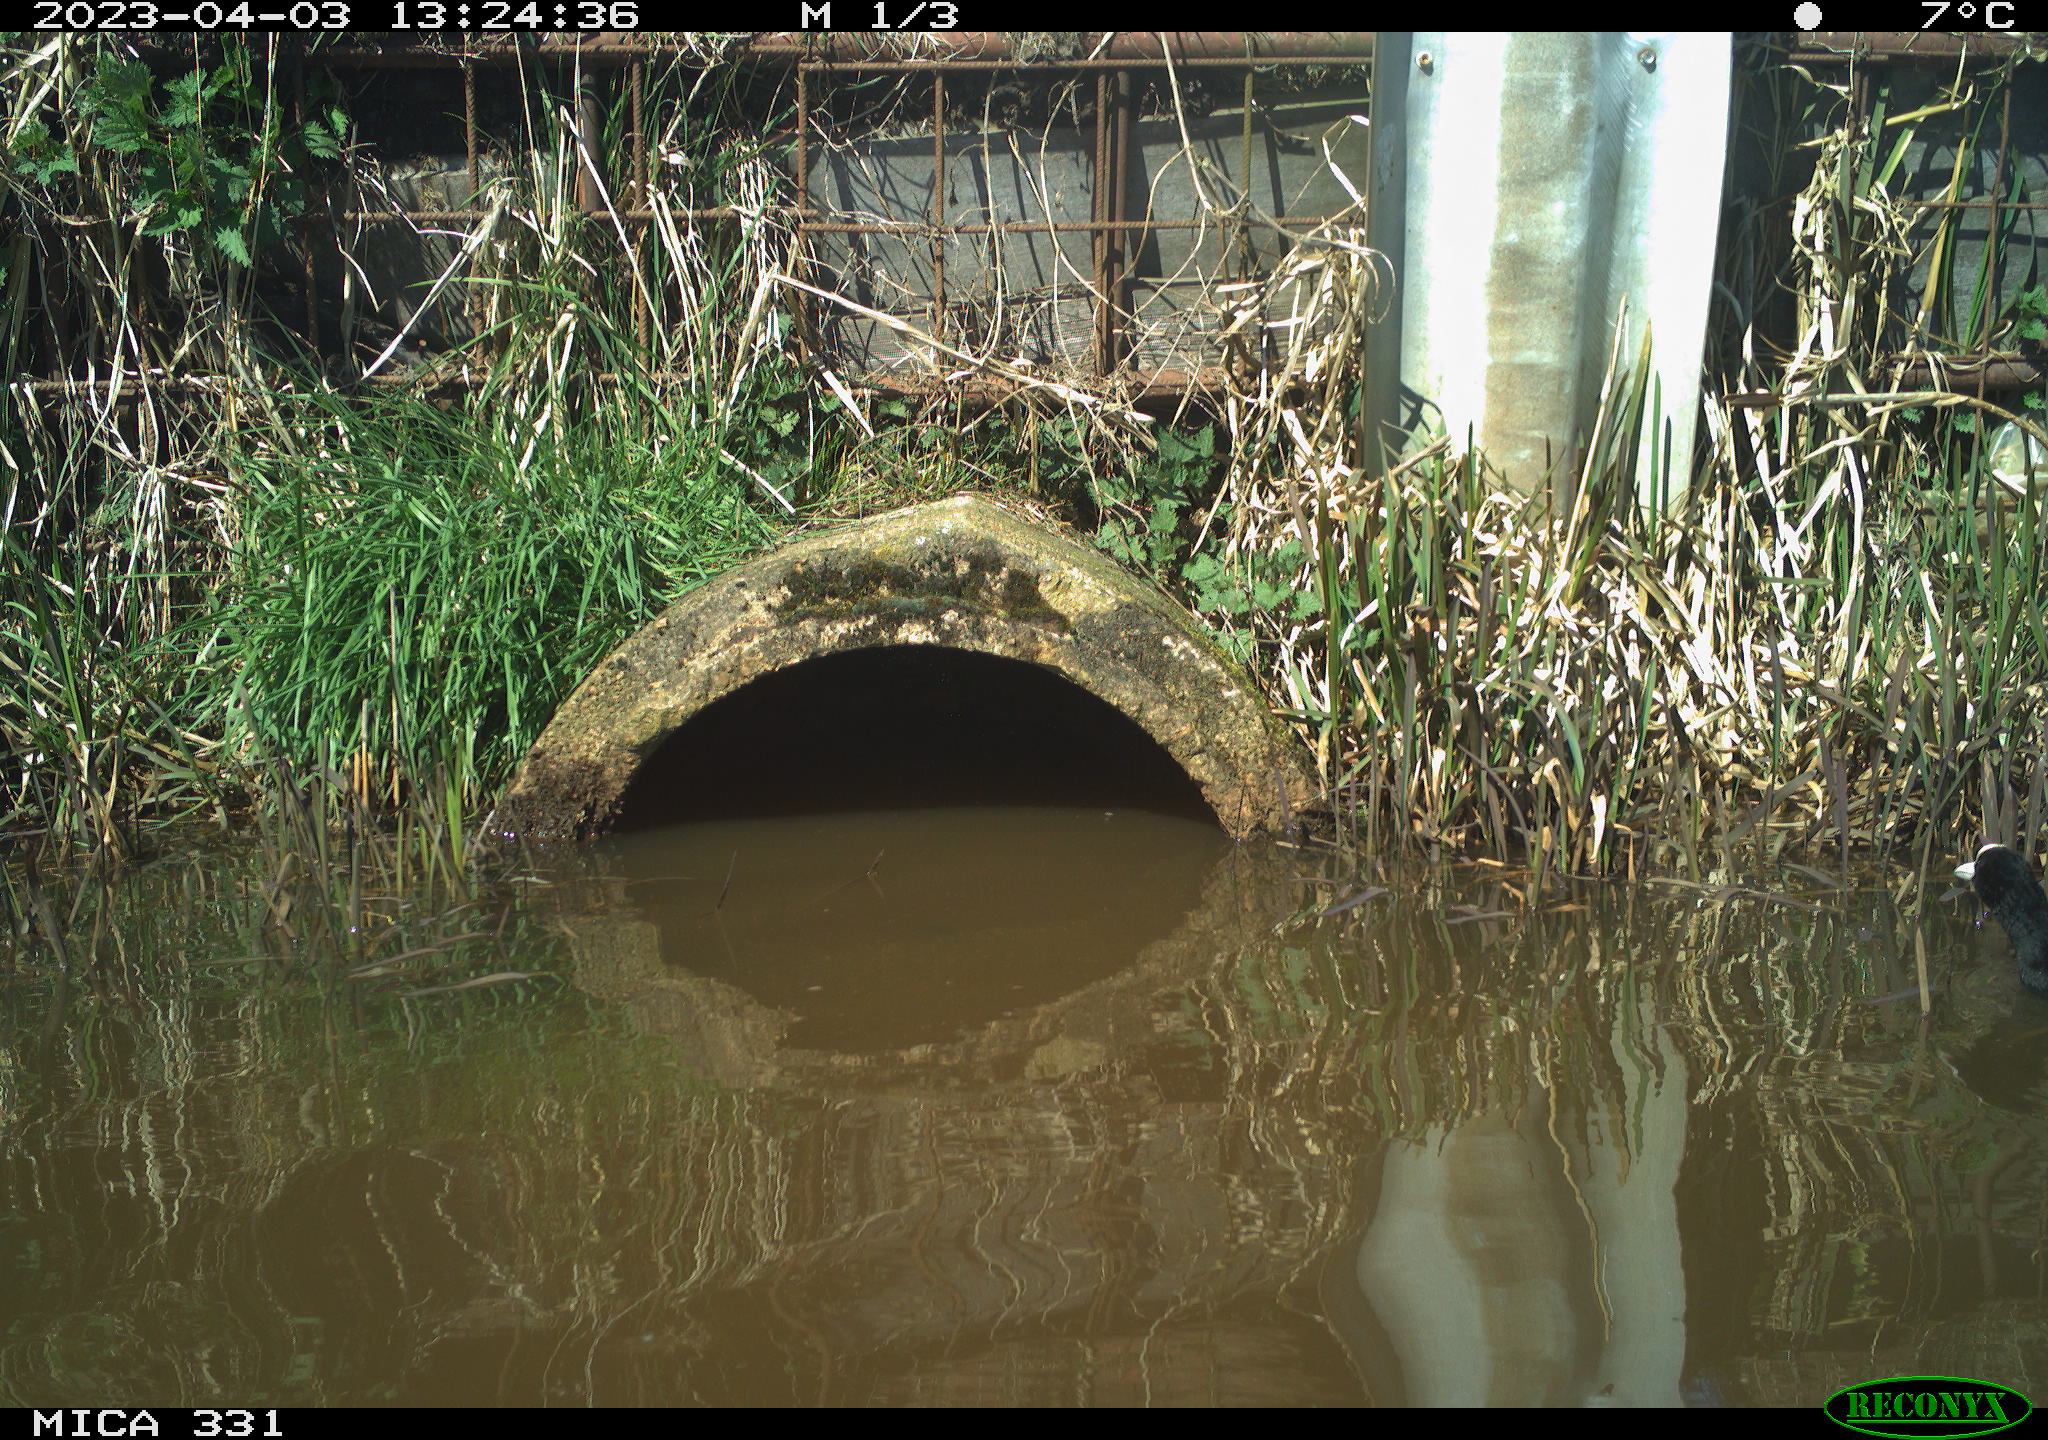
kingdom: Animalia
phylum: Chordata
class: Aves
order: Gruiformes
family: Rallidae
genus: Gallinula
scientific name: Gallinula chloropus
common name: Common moorhen
